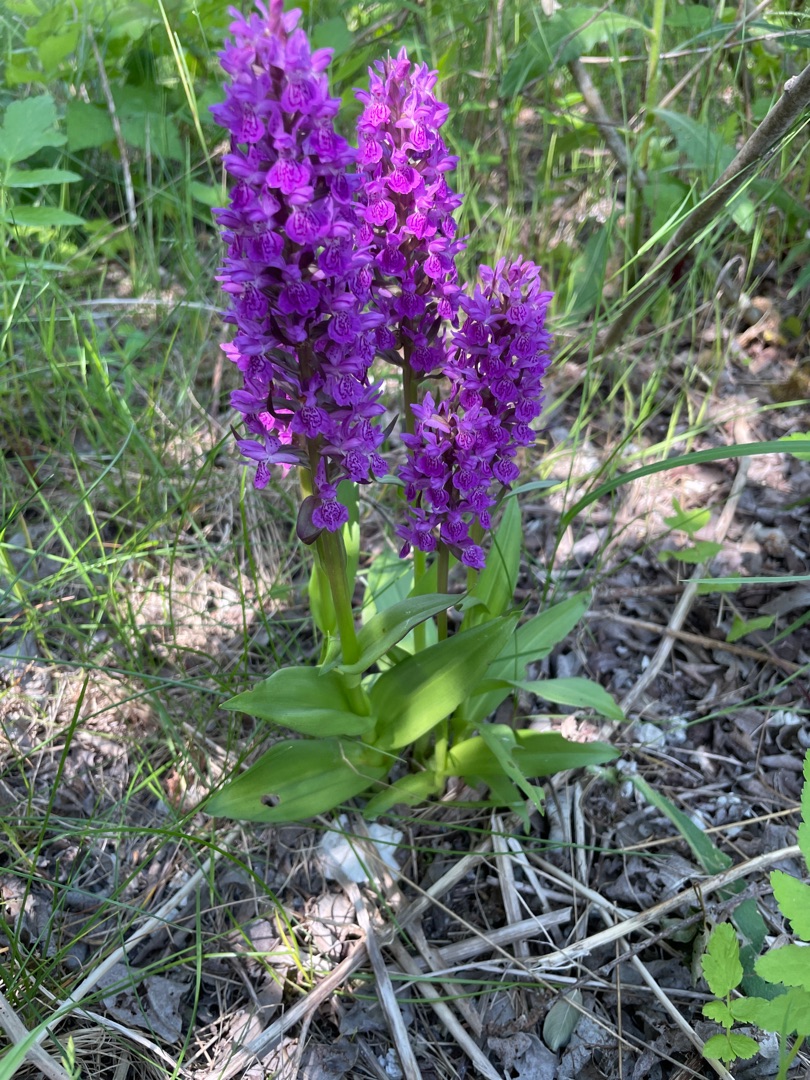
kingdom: Plantae
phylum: Tracheophyta
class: Liliopsida
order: Asparagales
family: Orchidaceae
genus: Dactylorhiza
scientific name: Dactylorhiza majalis
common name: Purpur-gøgeurt
